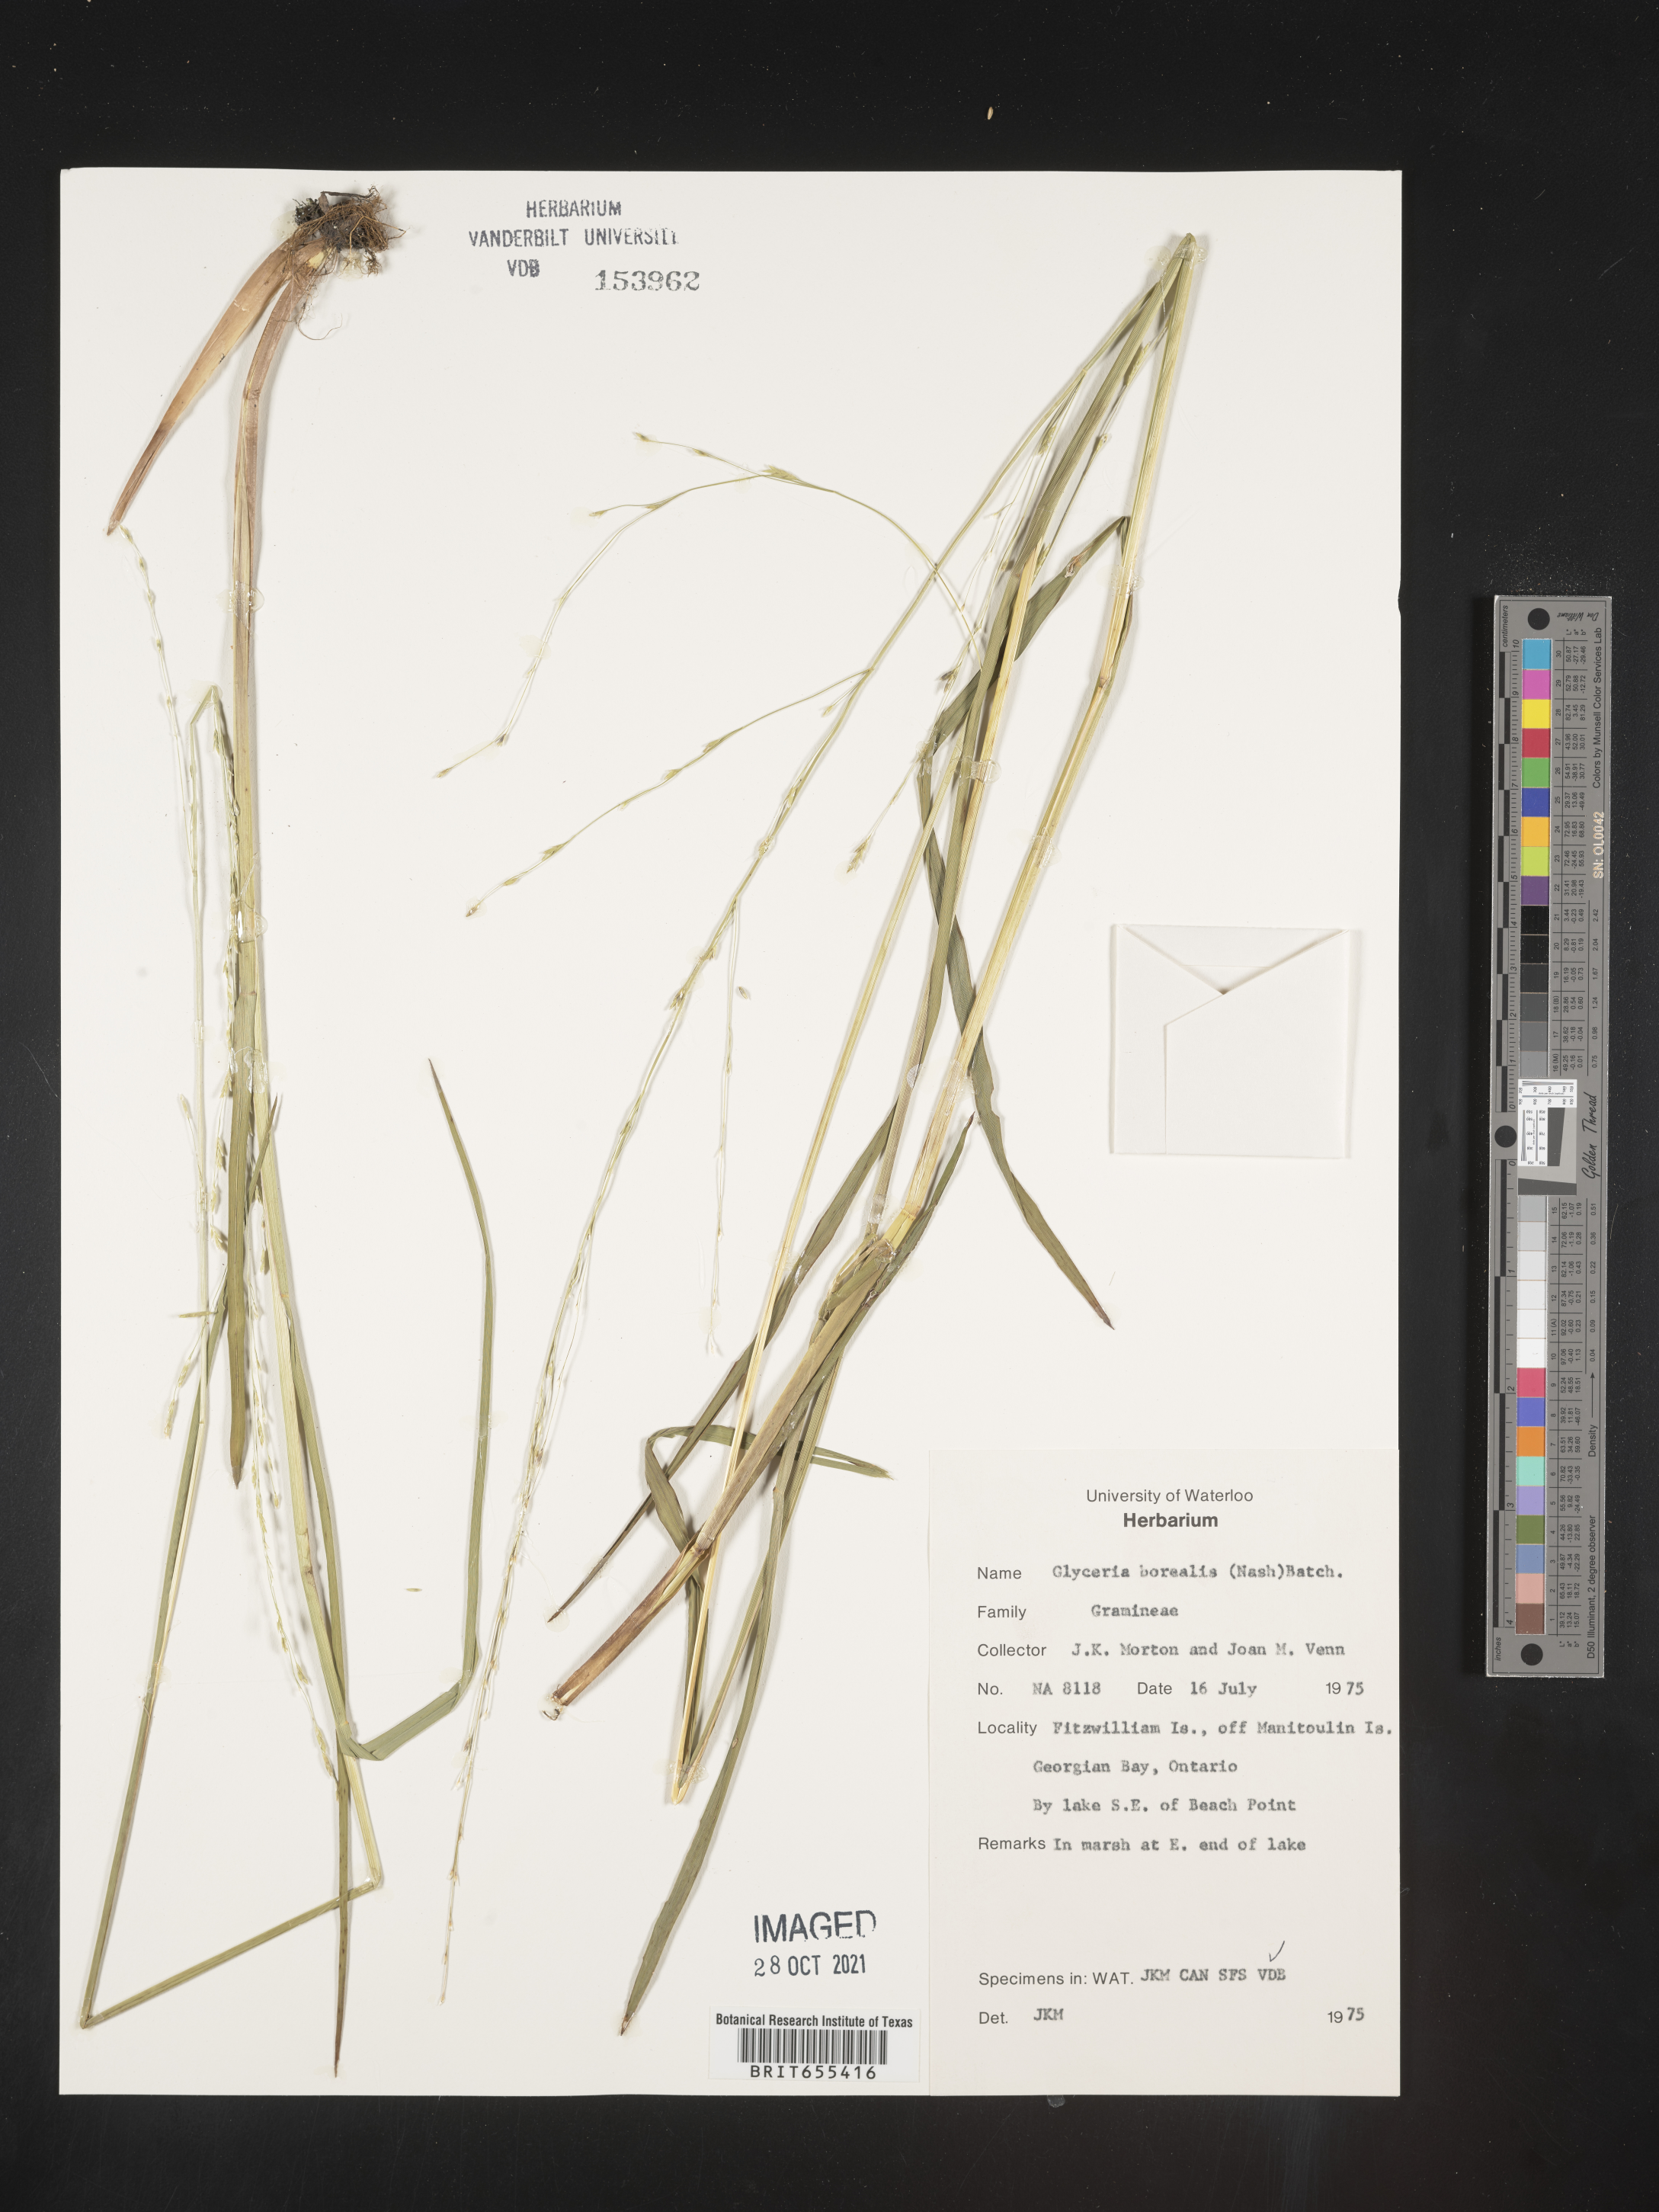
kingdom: Plantae
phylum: Tracheophyta
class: Liliopsida
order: Poales
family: Poaceae
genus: Glyceria
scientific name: Glyceria
